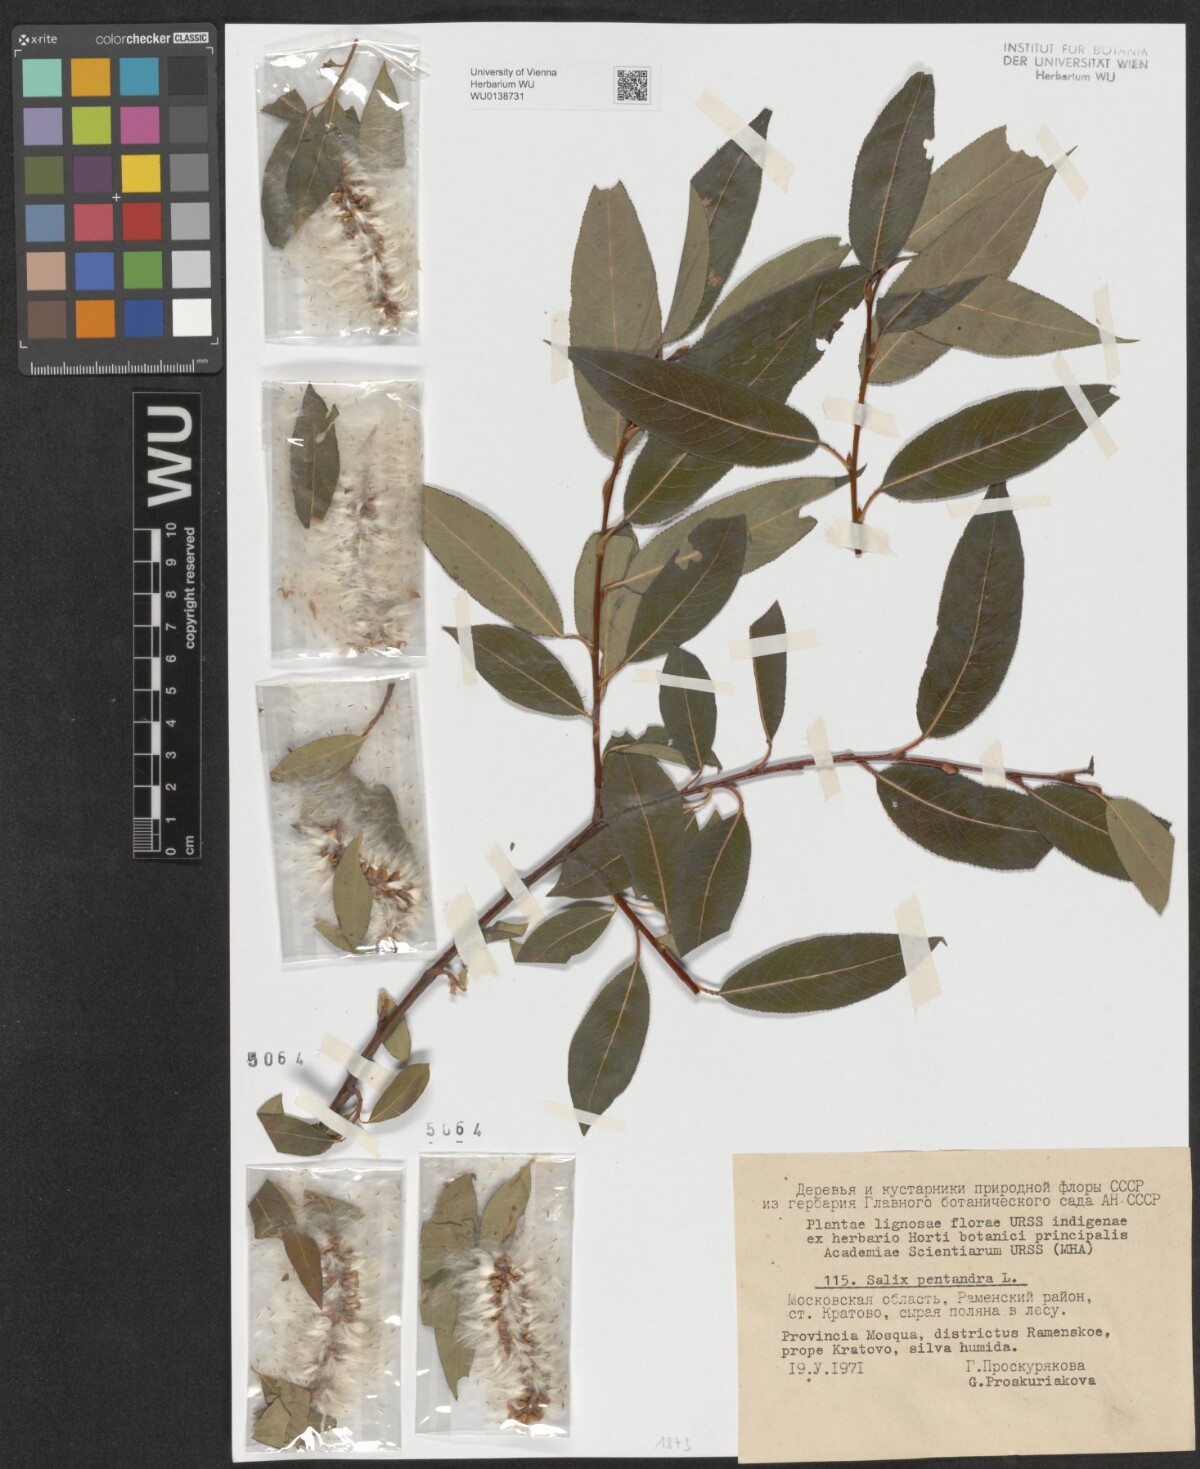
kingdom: Plantae
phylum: Tracheophyta
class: Magnoliopsida
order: Malpighiales
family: Salicaceae
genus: Salix
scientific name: Salix pentandra
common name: Bay willow
